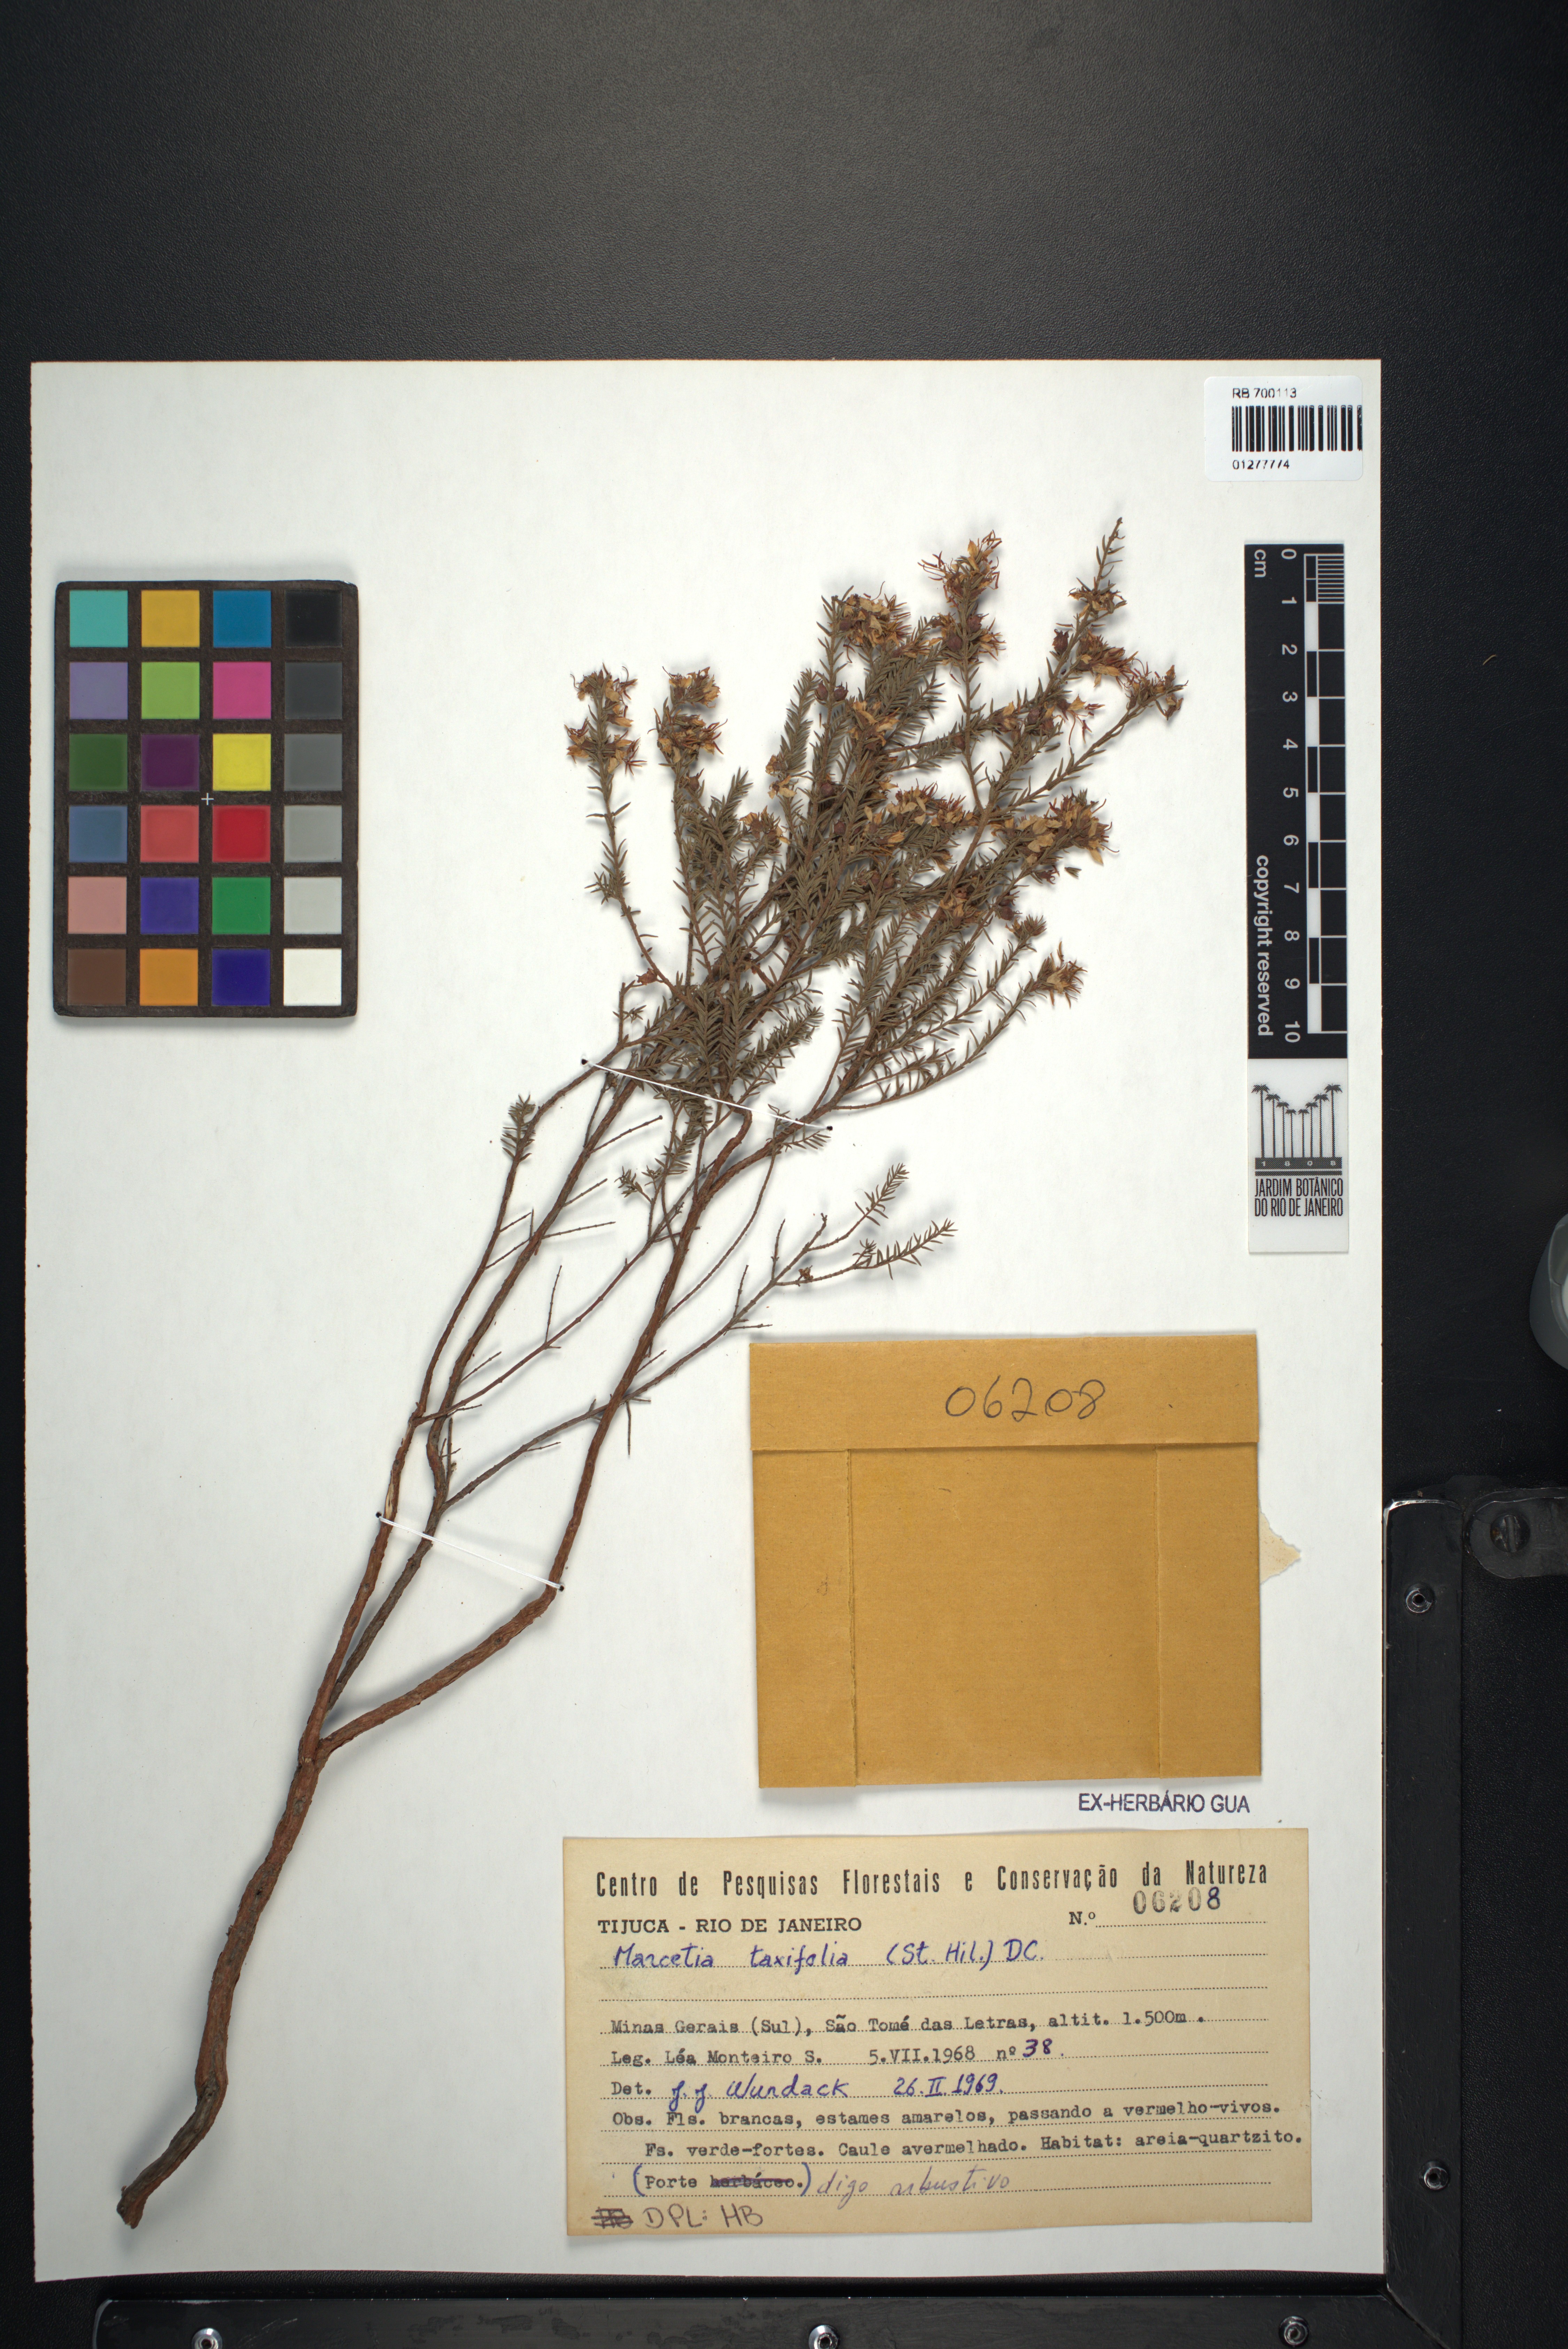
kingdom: Plantae
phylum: Tracheophyta
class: Magnoliopsida
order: Myrtales
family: Melastomataceae
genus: Marcetia
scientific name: Marcetia taxifolia
